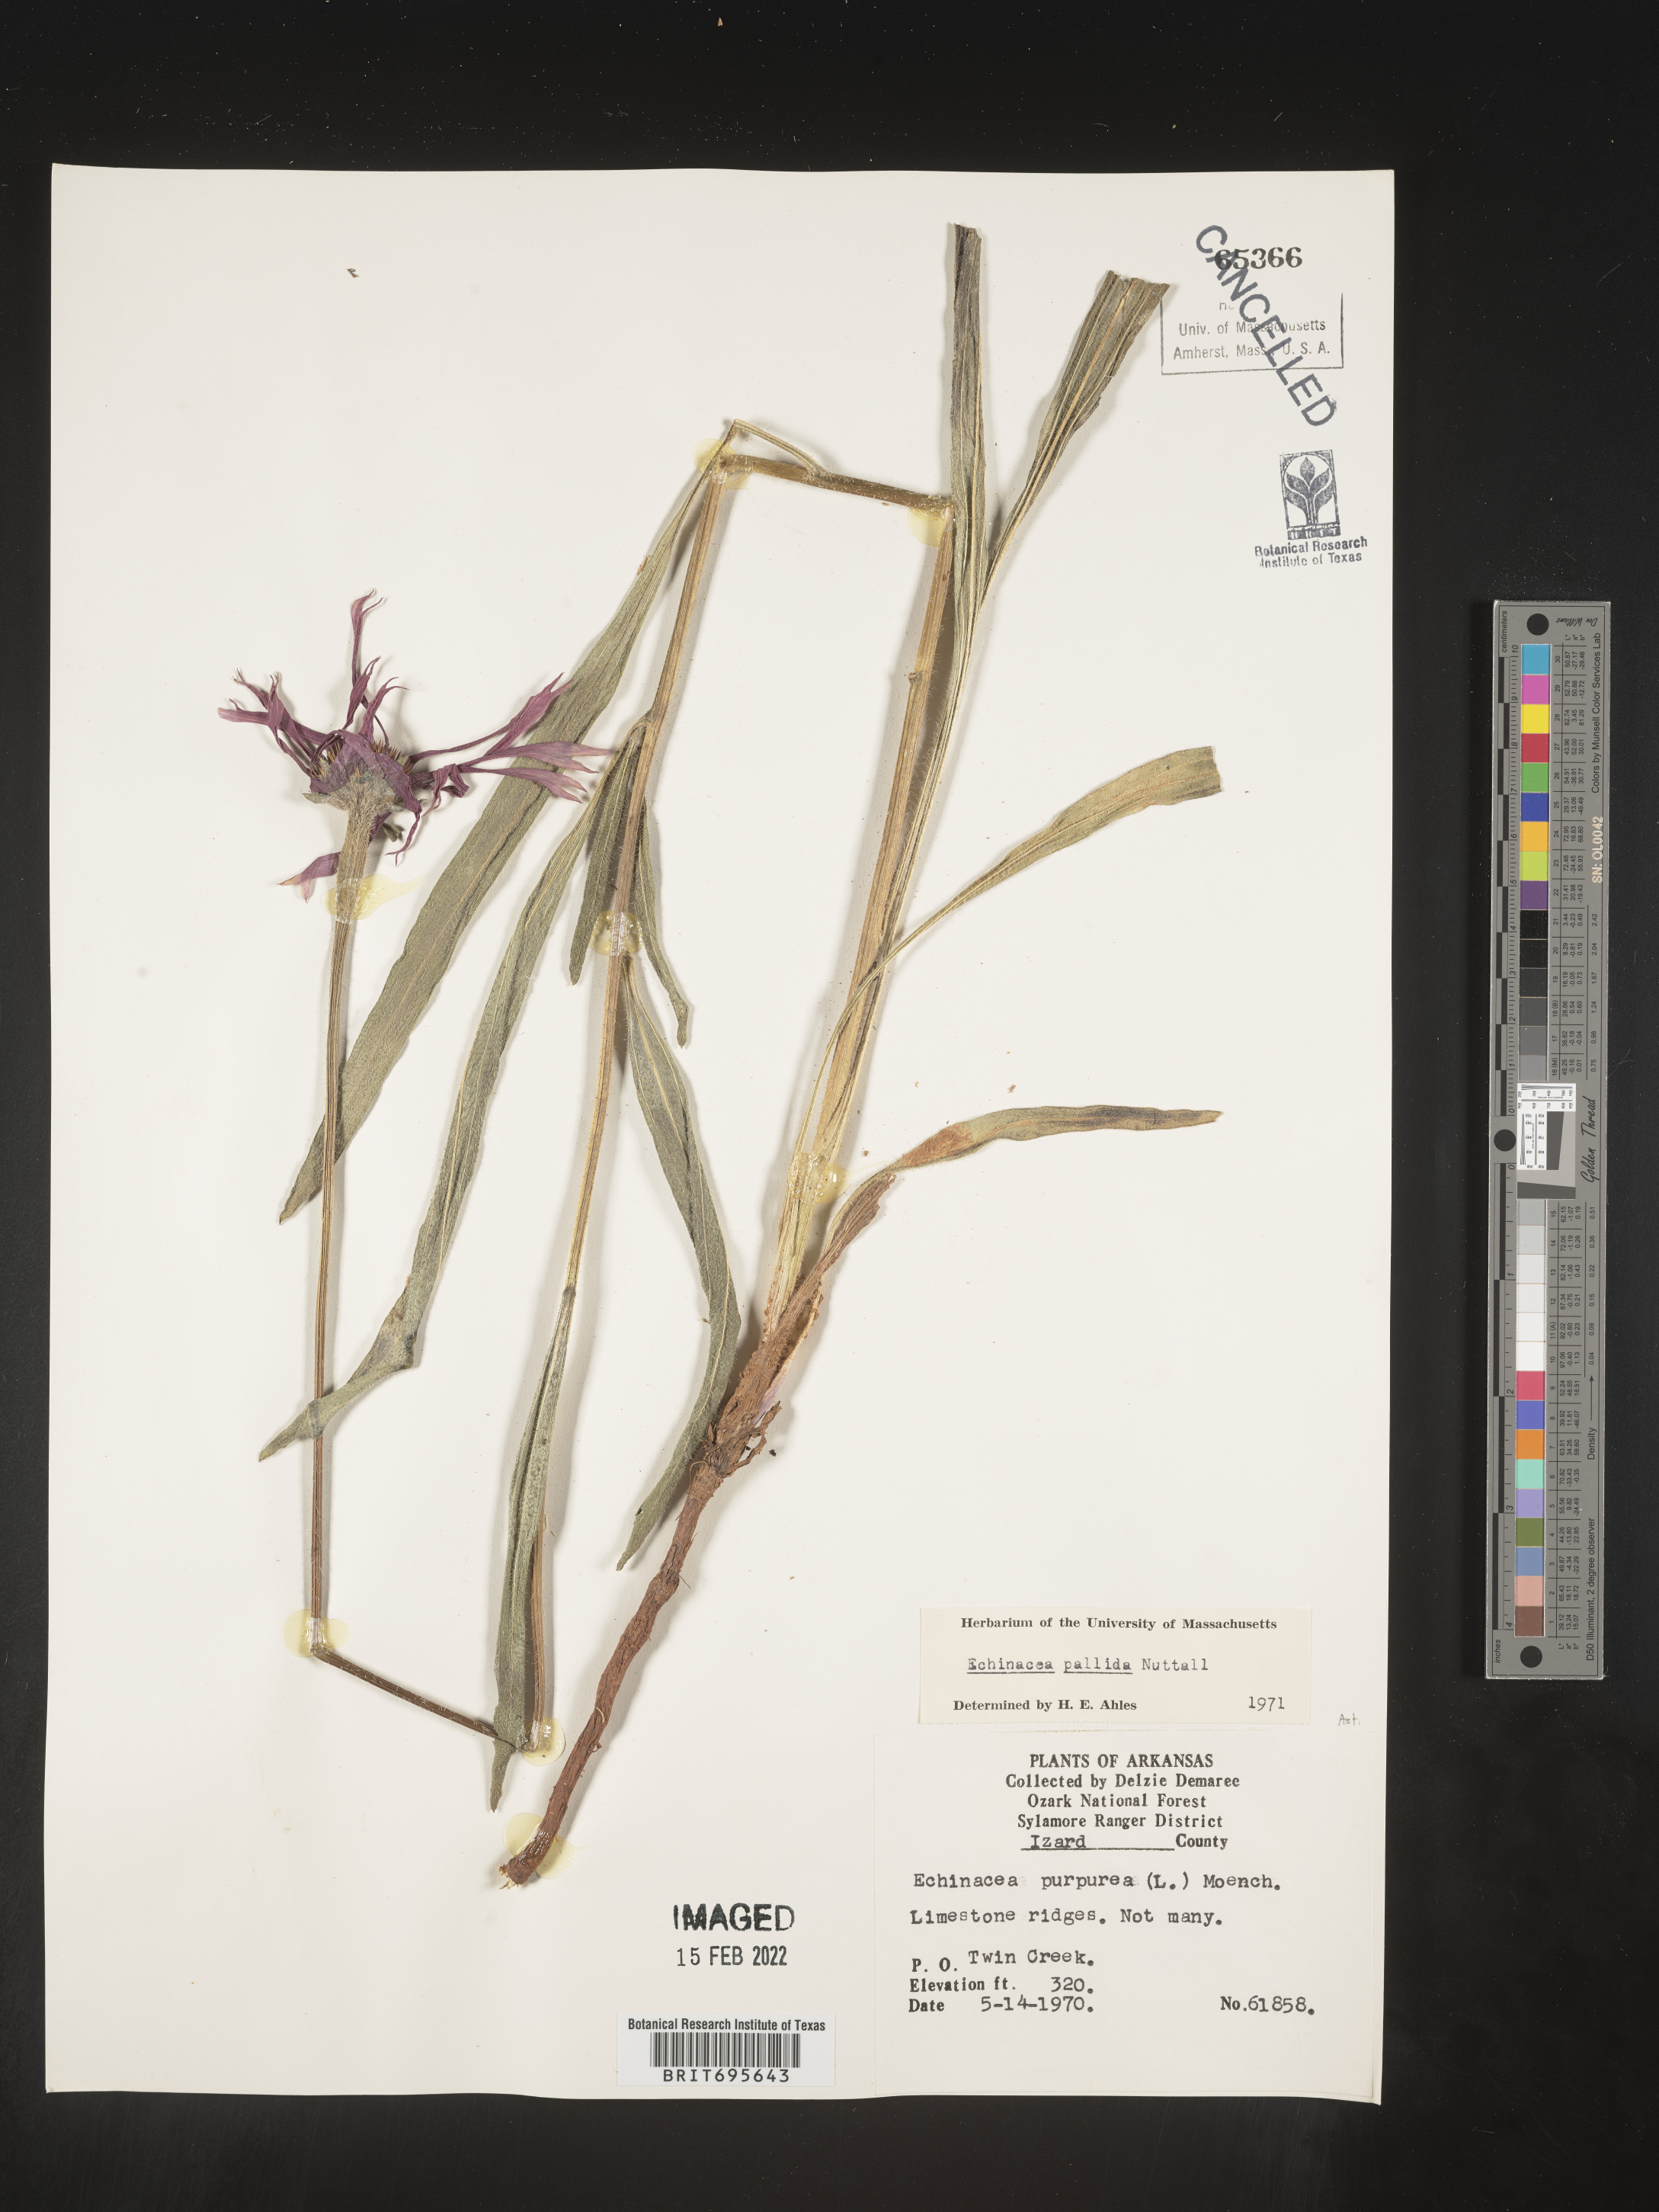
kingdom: Plantae
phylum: Tracheophyta
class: Magnoliopsida
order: Asterales
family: Asteraceae
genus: Echinacea
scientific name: Echinacea pallida
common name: Pale echinacea
